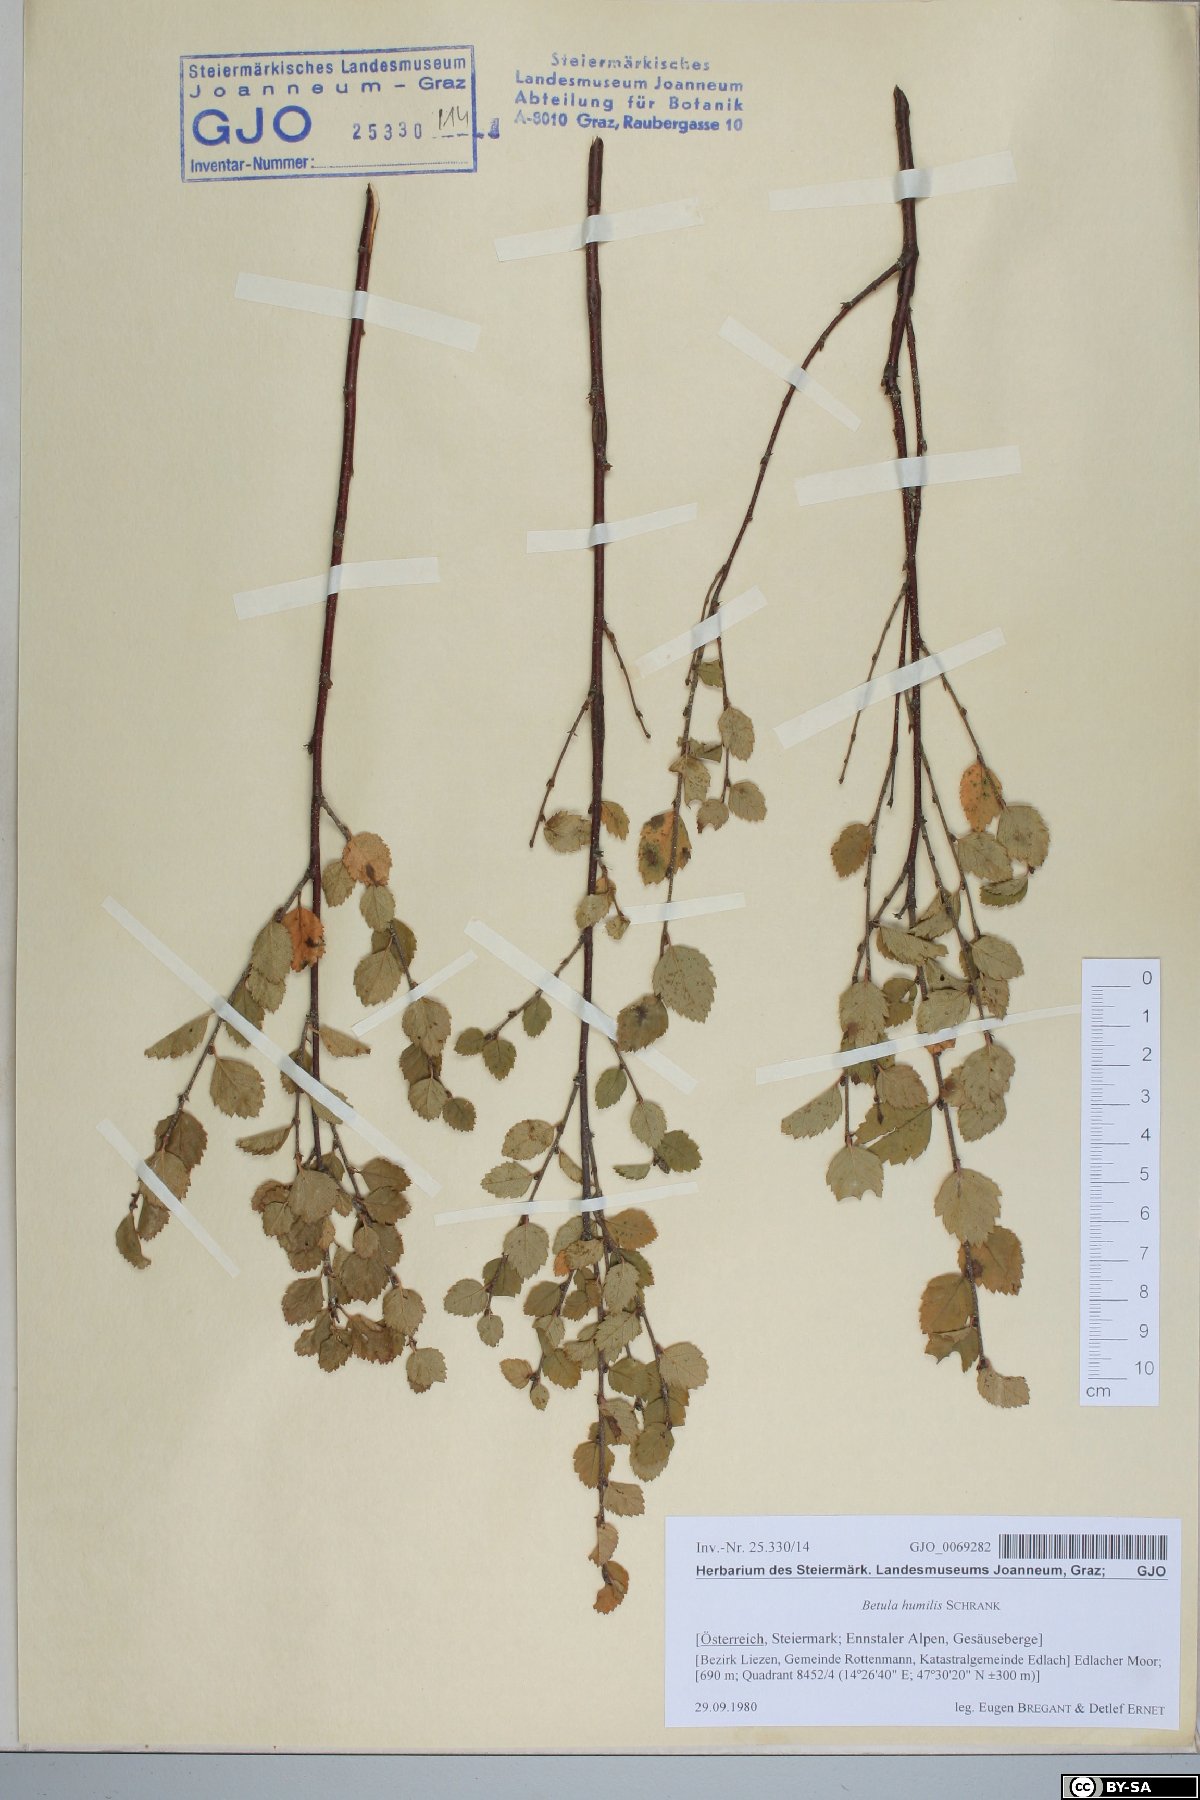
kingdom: Plantae
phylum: Tracheophyta
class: Magnoliopsida
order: Fagales
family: Betulaceae
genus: Betula
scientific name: Betula humilis
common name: Shrubby birch
